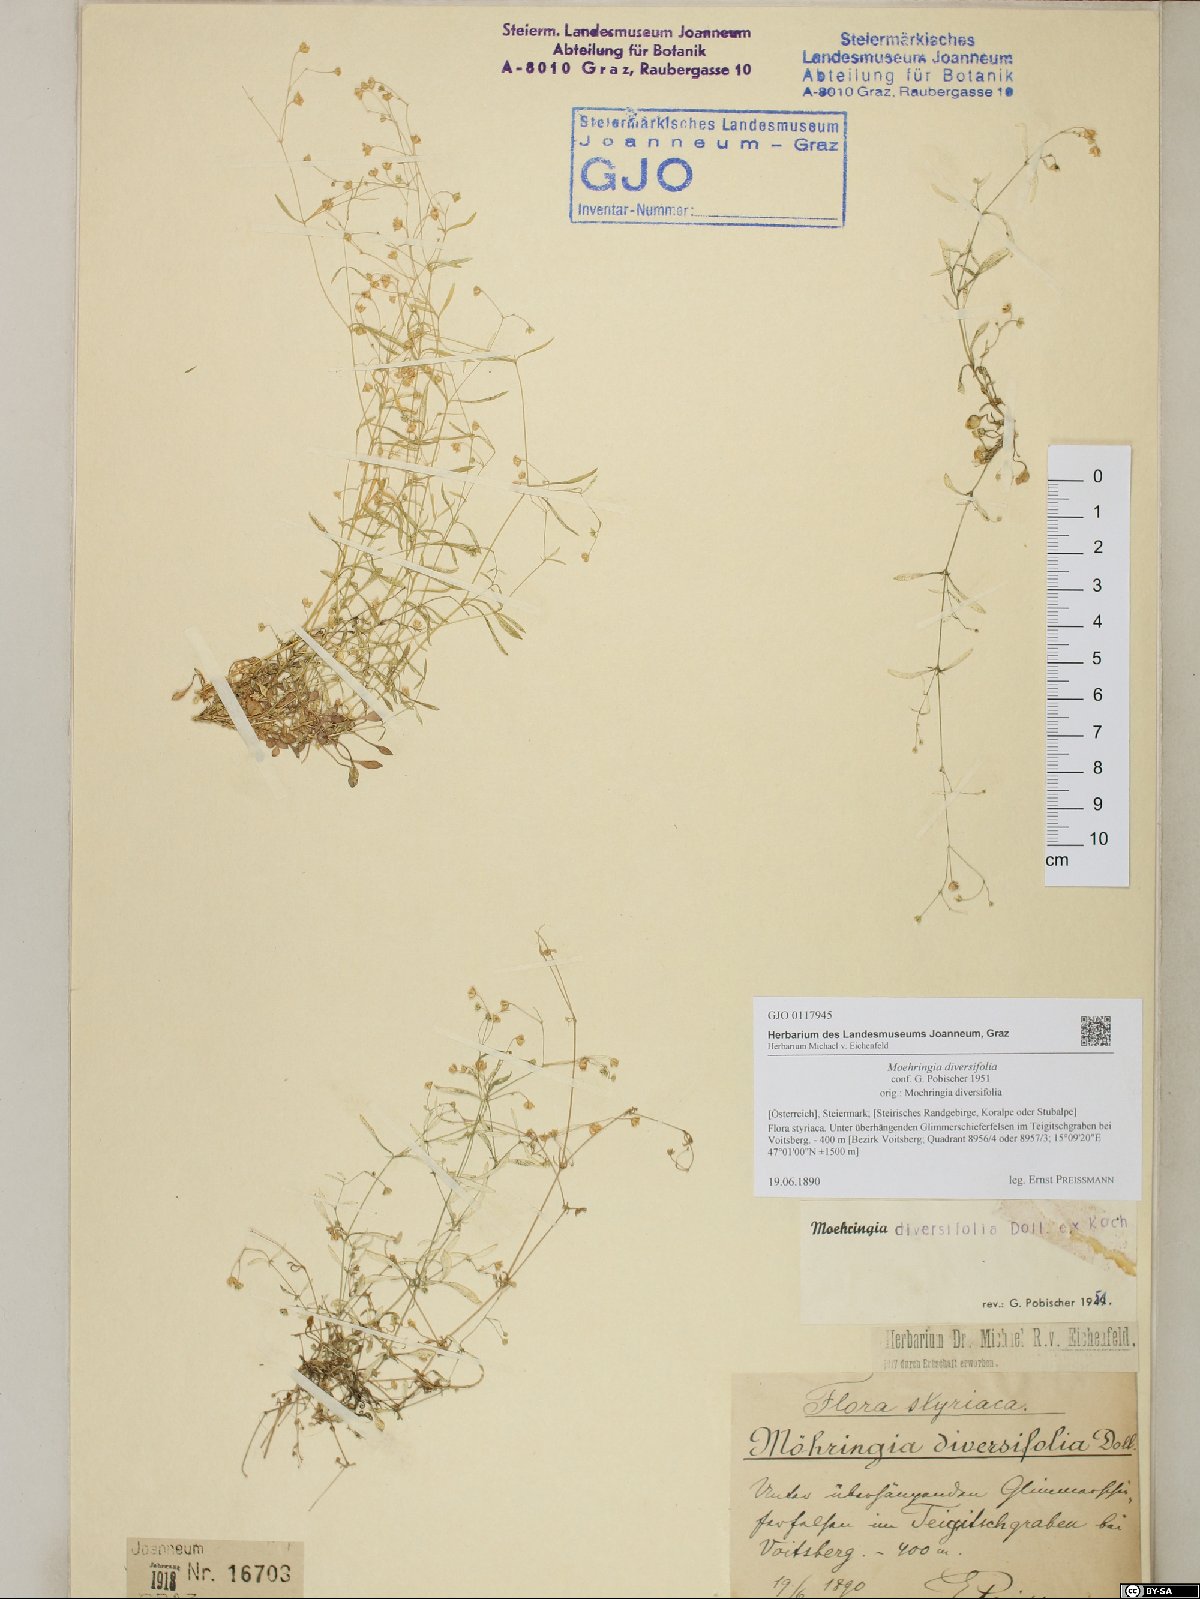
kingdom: Plantae
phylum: Tracheophyta
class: Magnoliopsida
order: Caryophyllales
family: Caryophyllaceae
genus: Moehringia
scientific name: Moehringia diversifolia
